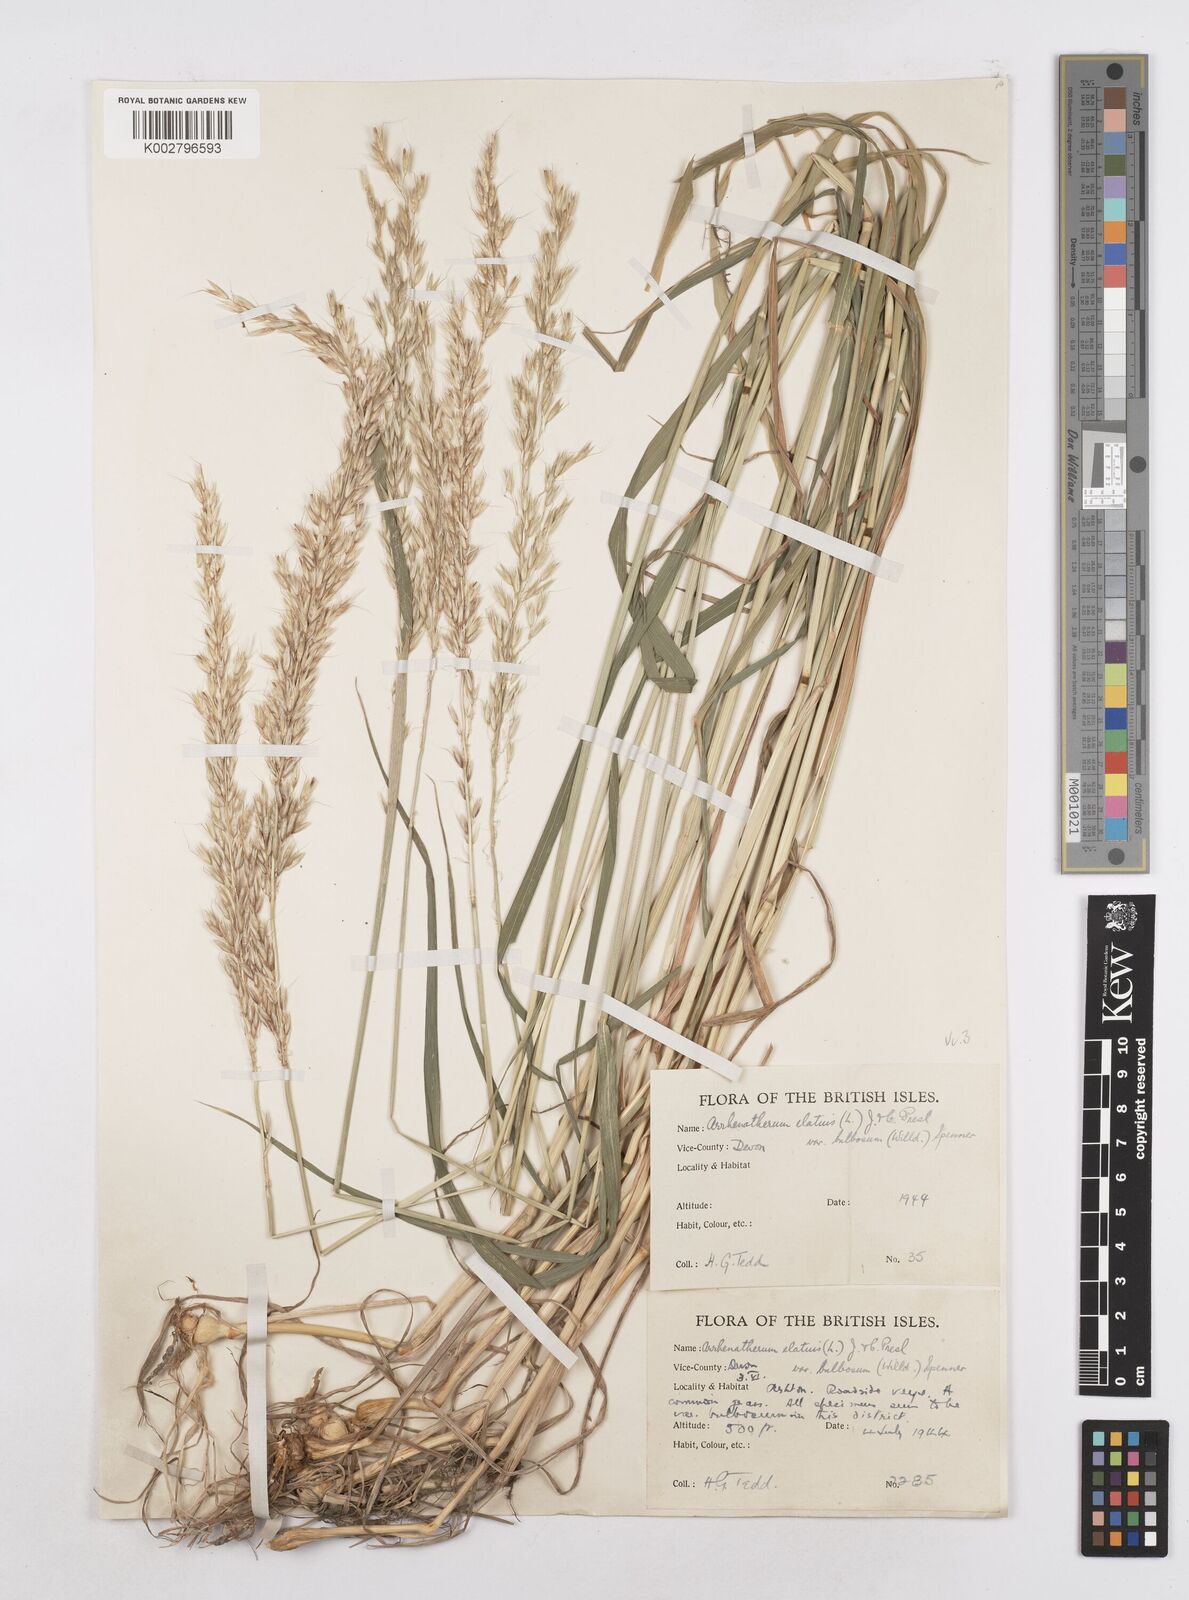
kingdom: Plantae
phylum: Tracheophyta
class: Liliopsida
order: Poales
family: Poaceae
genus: Arrhenatherum
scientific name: Arrhenatherum elatius
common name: Tall oatgrass
